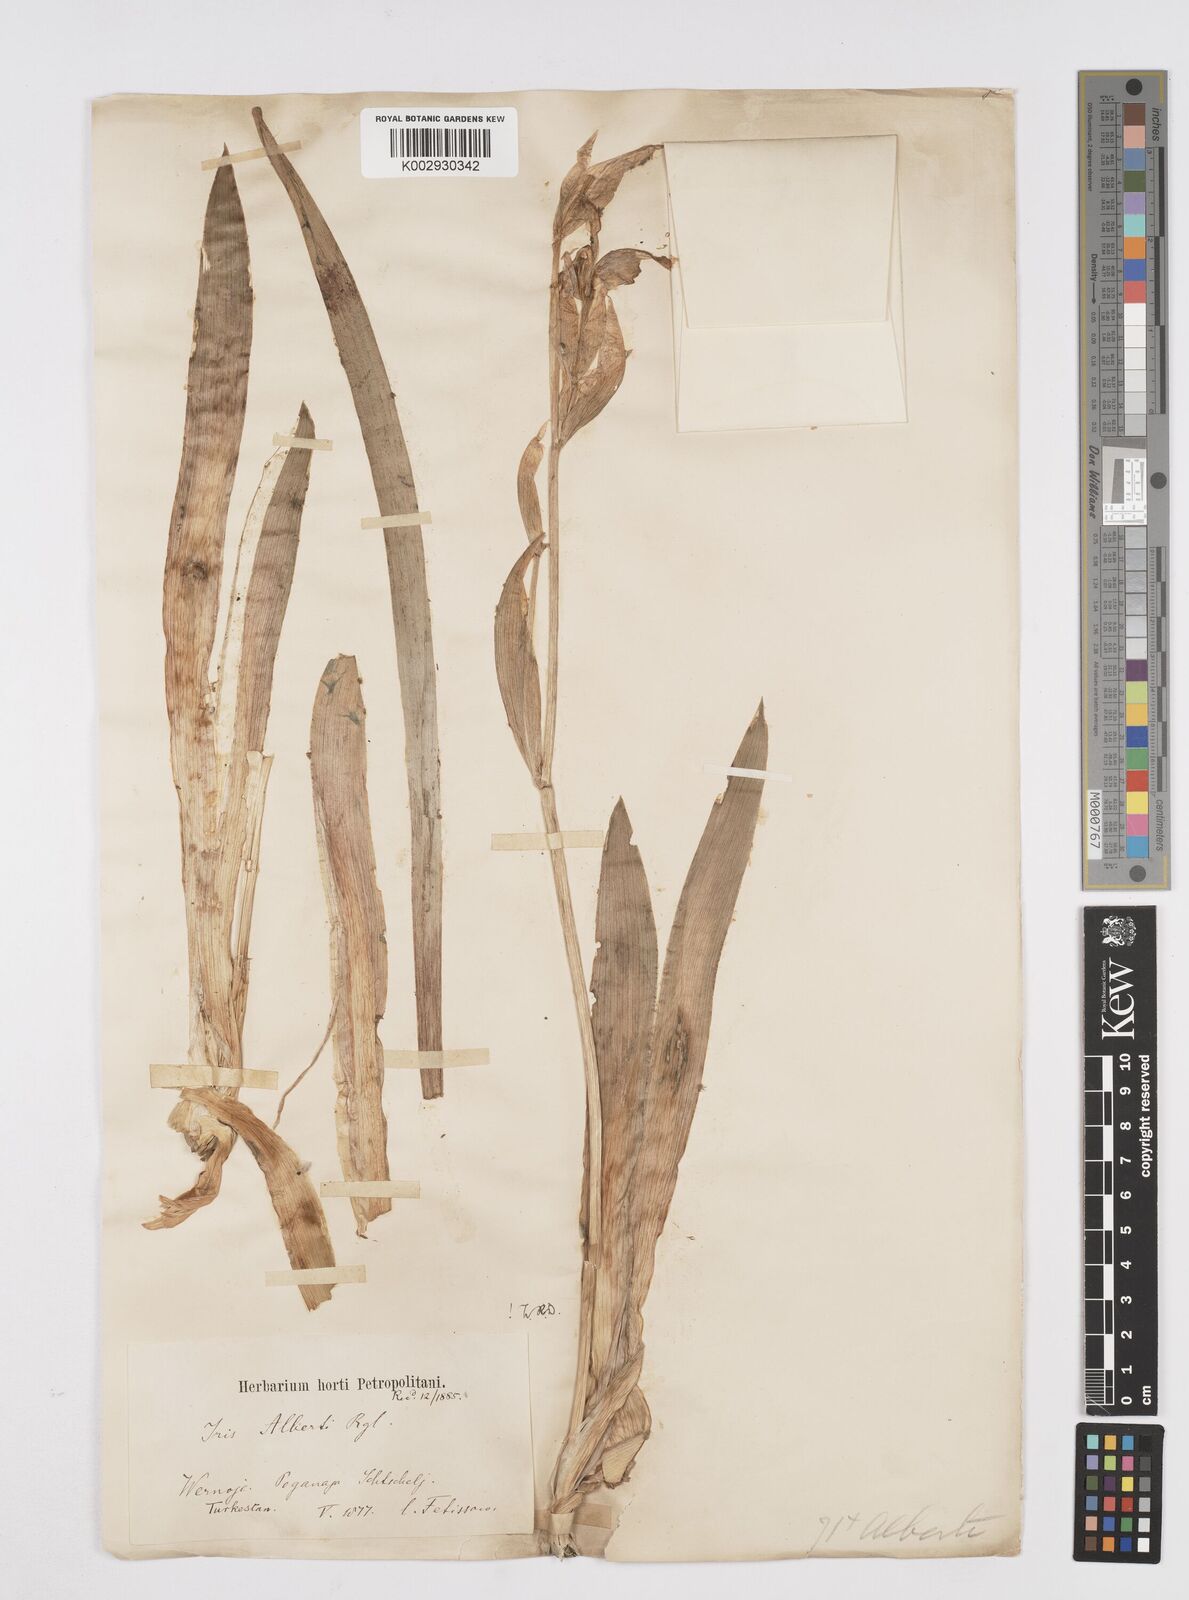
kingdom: Plantae
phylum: Tracheophyta
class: Liliopsida
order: Asparagales
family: Iridaceae
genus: Iris
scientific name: Iris alberti
